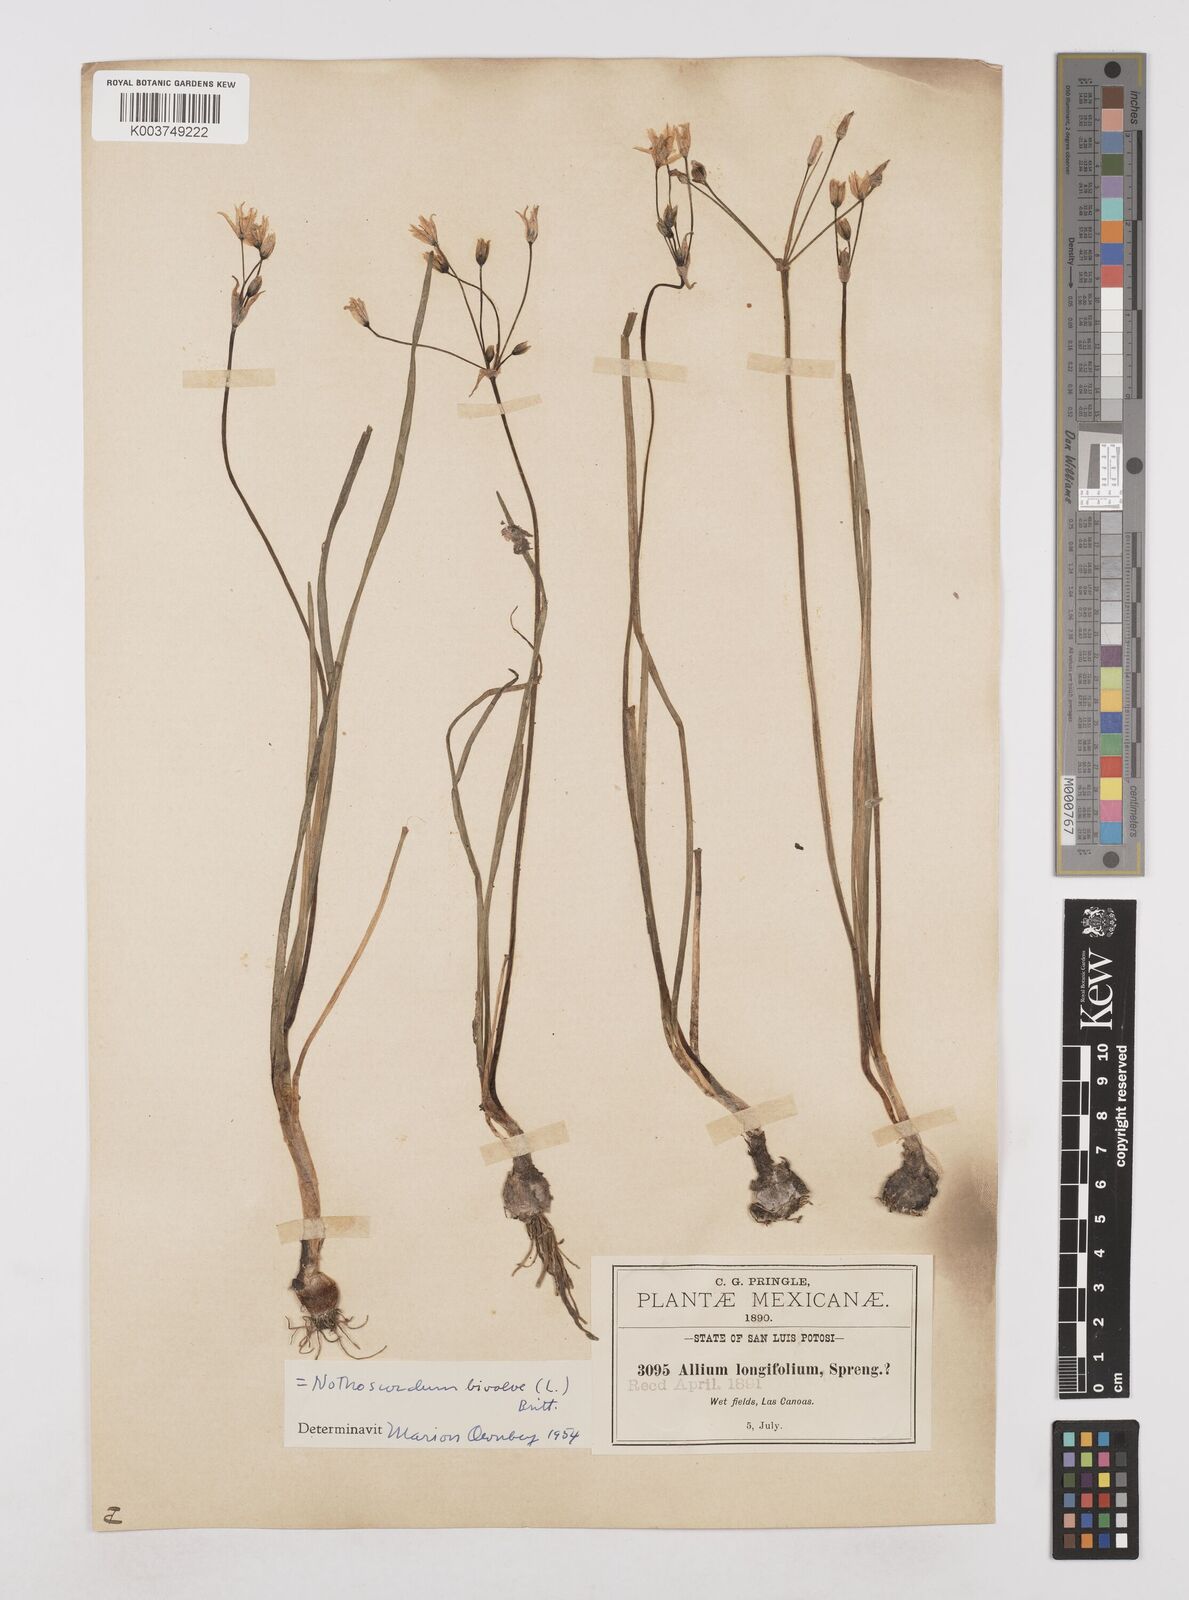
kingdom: Plantae
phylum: Tracheophyta
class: Liliopsida
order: Asparagales
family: Amaryllidaceae
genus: Nothoscordum
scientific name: Nothoscordum bivalve
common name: Crow-poison
